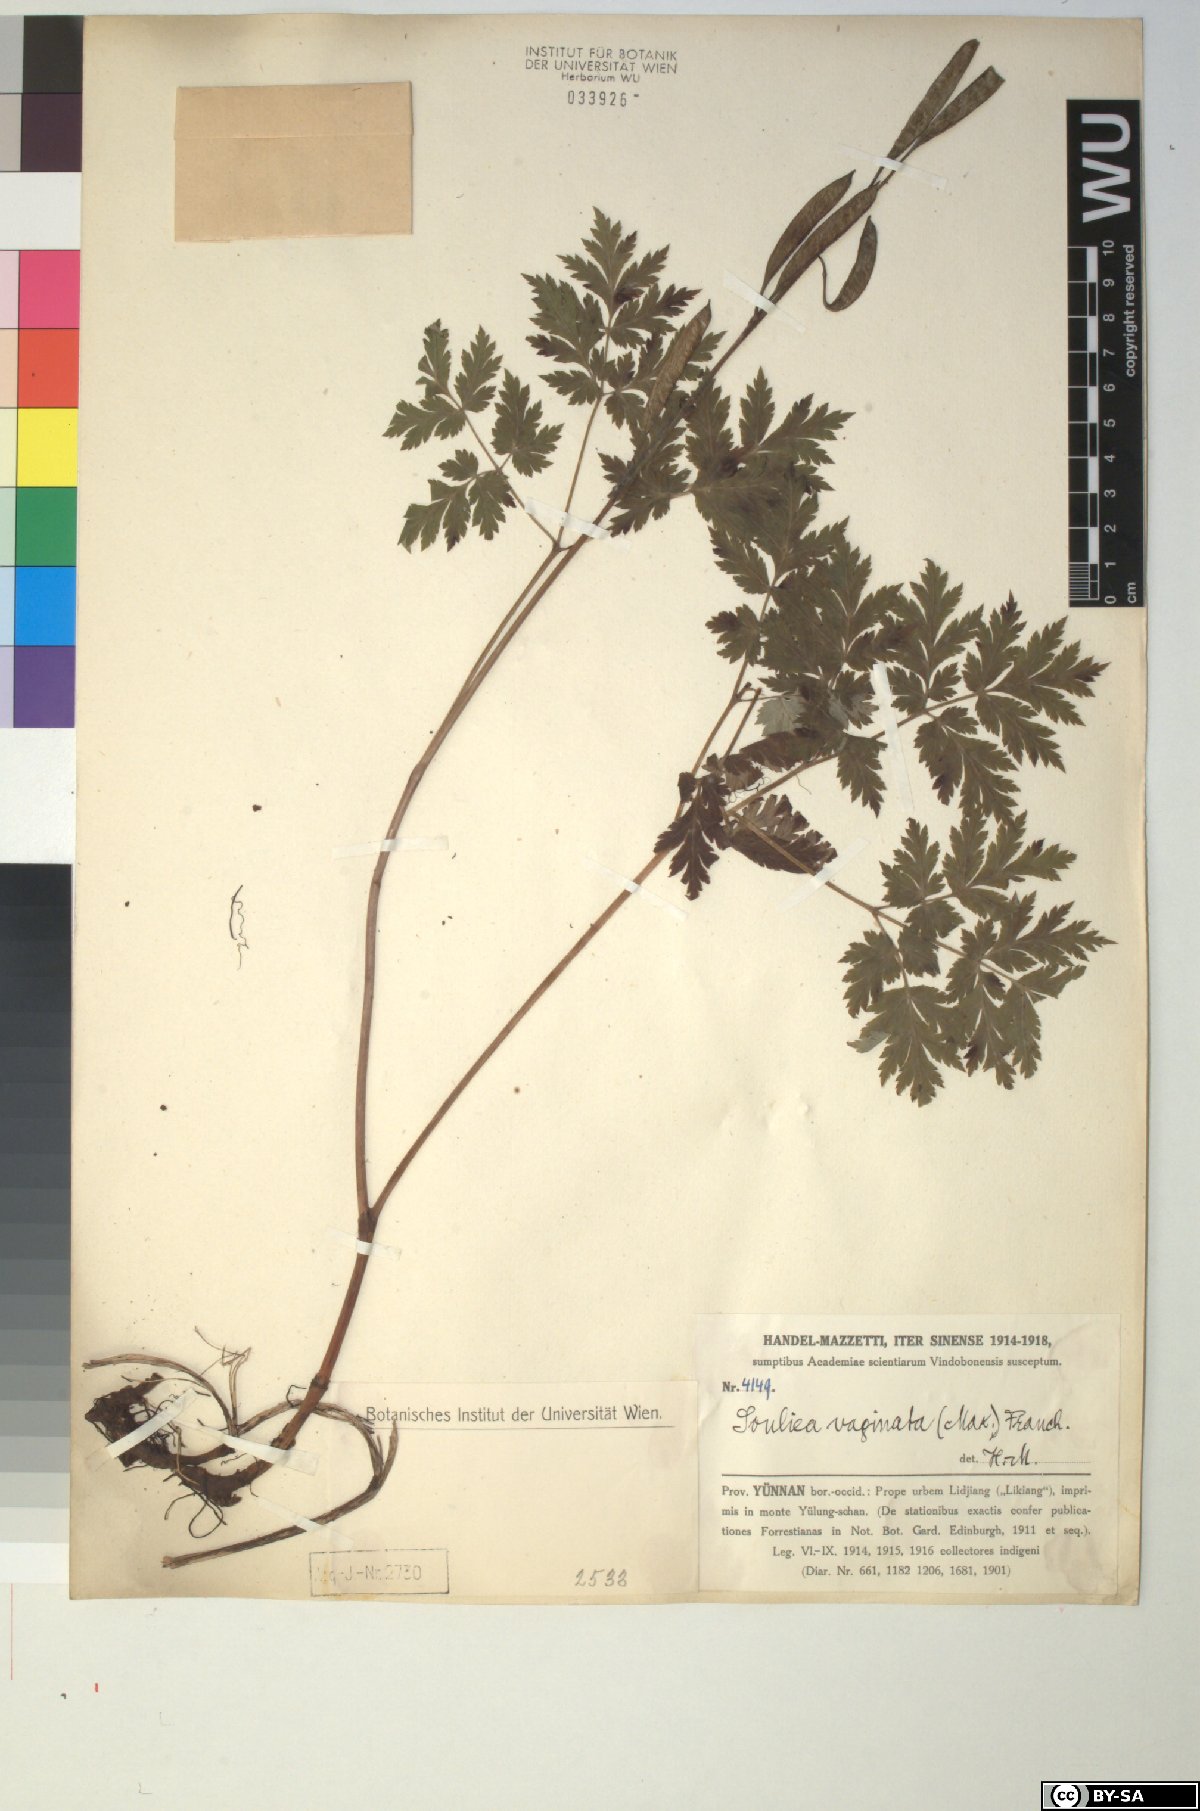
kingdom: Plantae
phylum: Tracheophyta
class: Magnoliopsida
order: Ranunculales
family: Ranunculaceae
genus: Actaea
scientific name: Actaea vaginata
